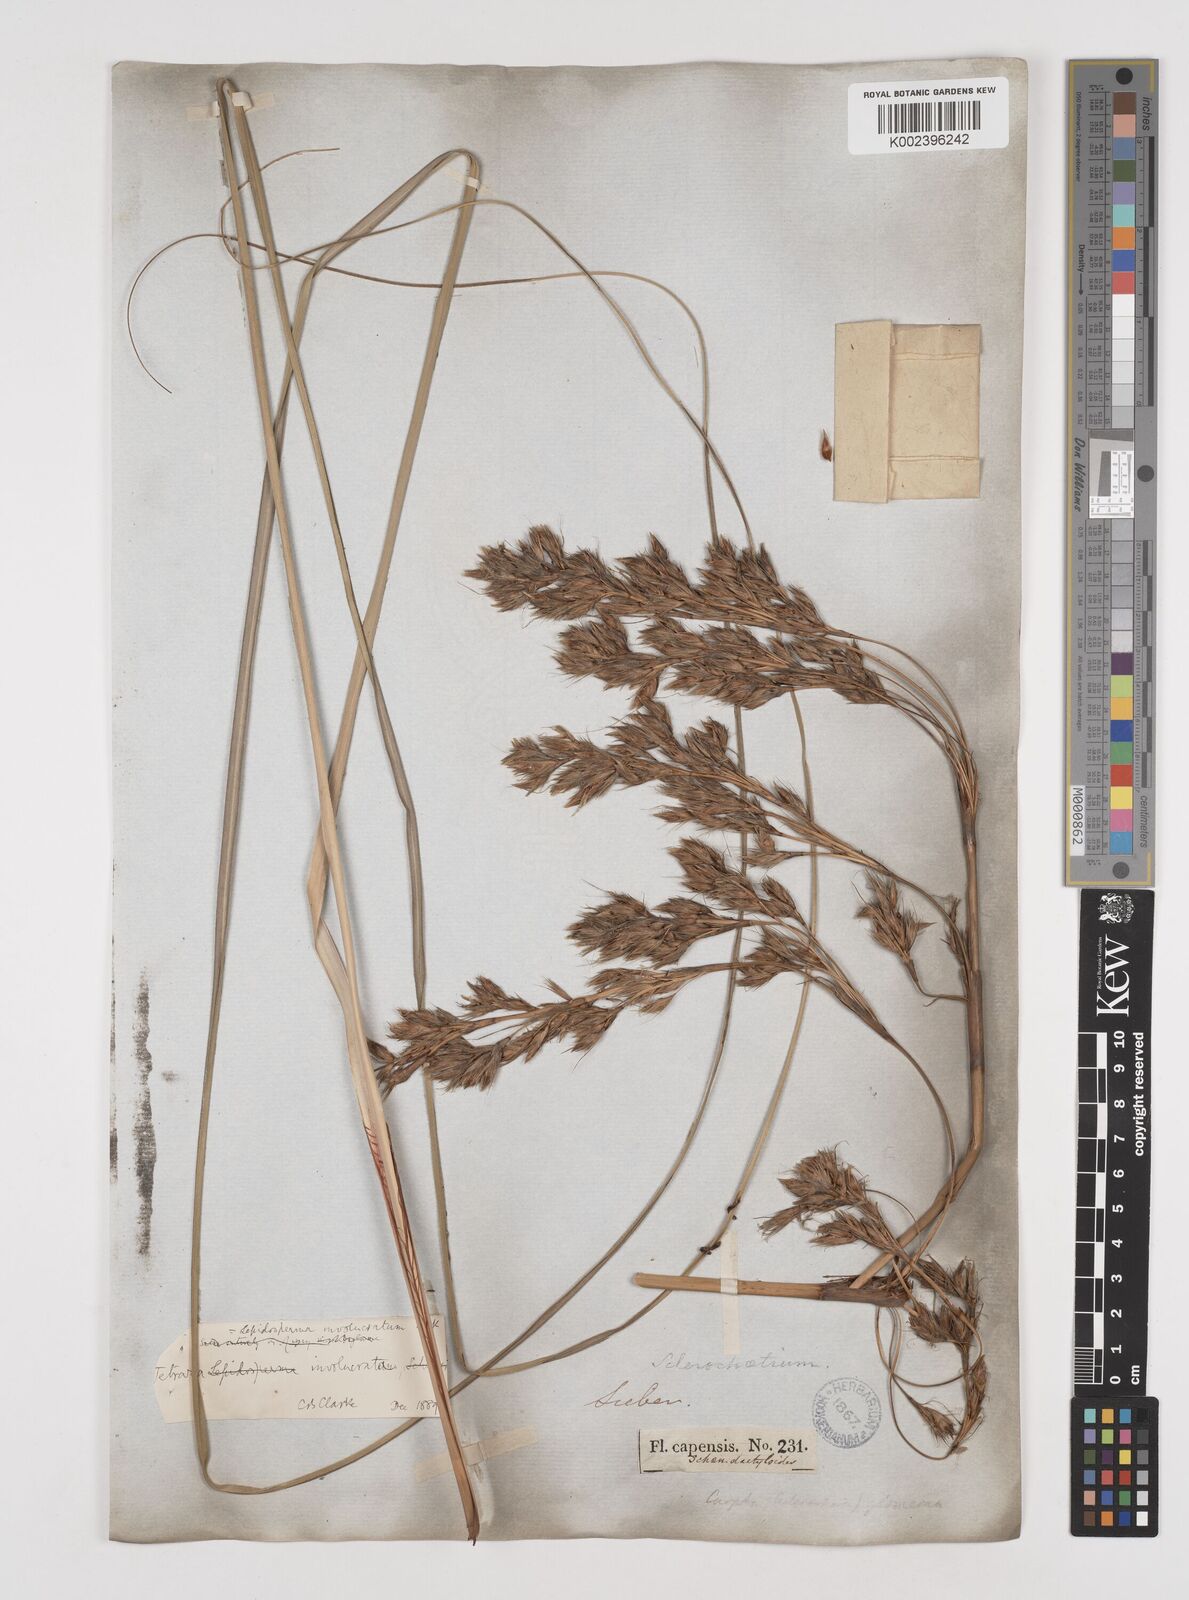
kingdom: Plantae
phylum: Tracheophyta
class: Liliopsida
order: Poales
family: Cyperaceae
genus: Tetraria
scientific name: Tetraria involucrata
